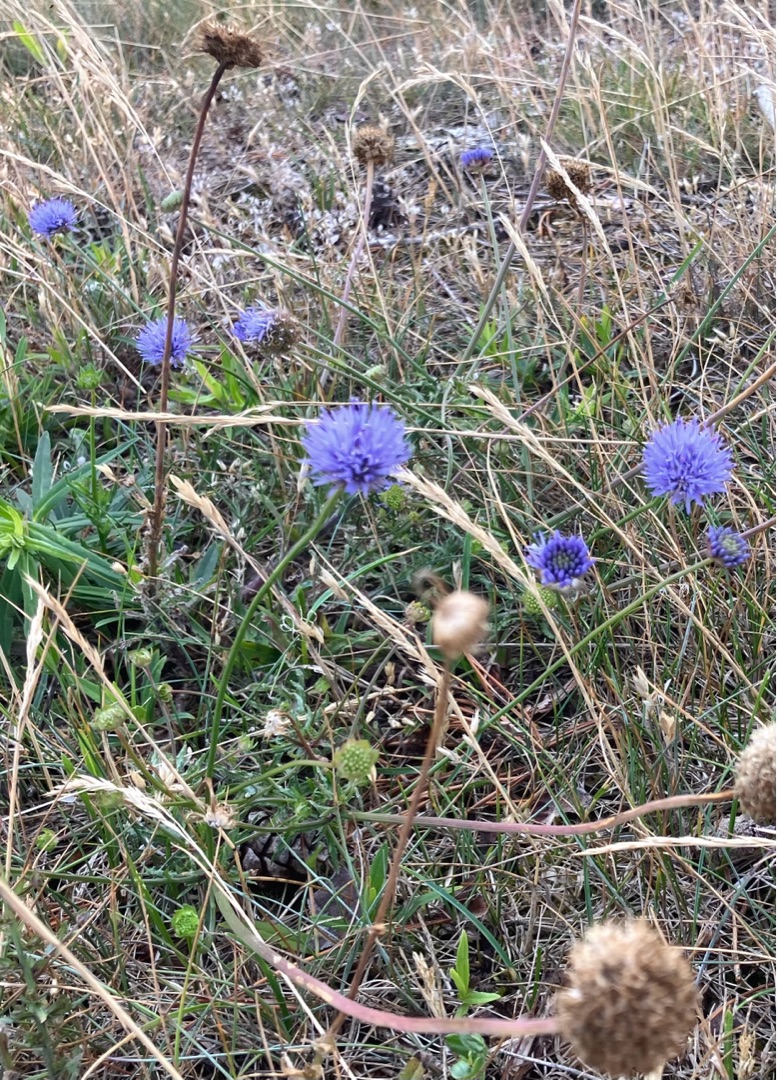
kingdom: Plantae
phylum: Tracheophyta
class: Magnoliopsida
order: Asterales
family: Campanulaceae
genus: Jasione
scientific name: Jasione montana
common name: Blåmunke
